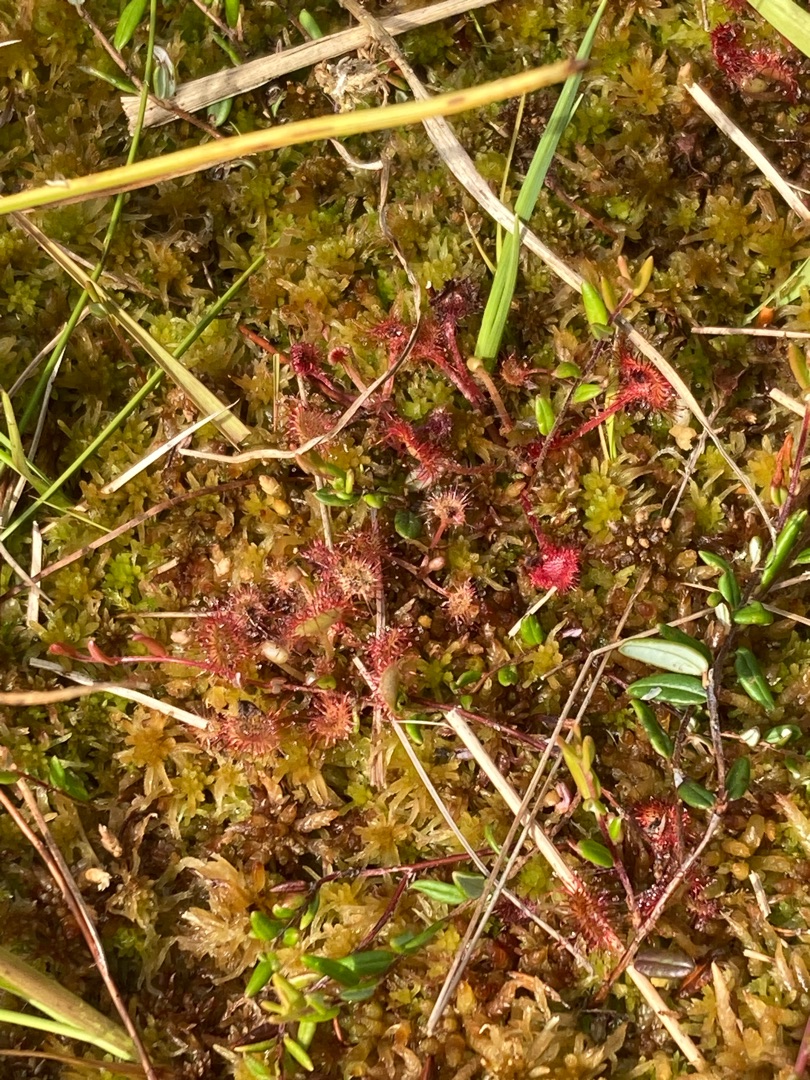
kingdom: Plantae
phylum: Tracheophyta
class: Magnoliopsida
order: Caryophyllales
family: Droseraceae
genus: Drosera
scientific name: Drosera rotundifolia
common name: Rundbladet soldug
